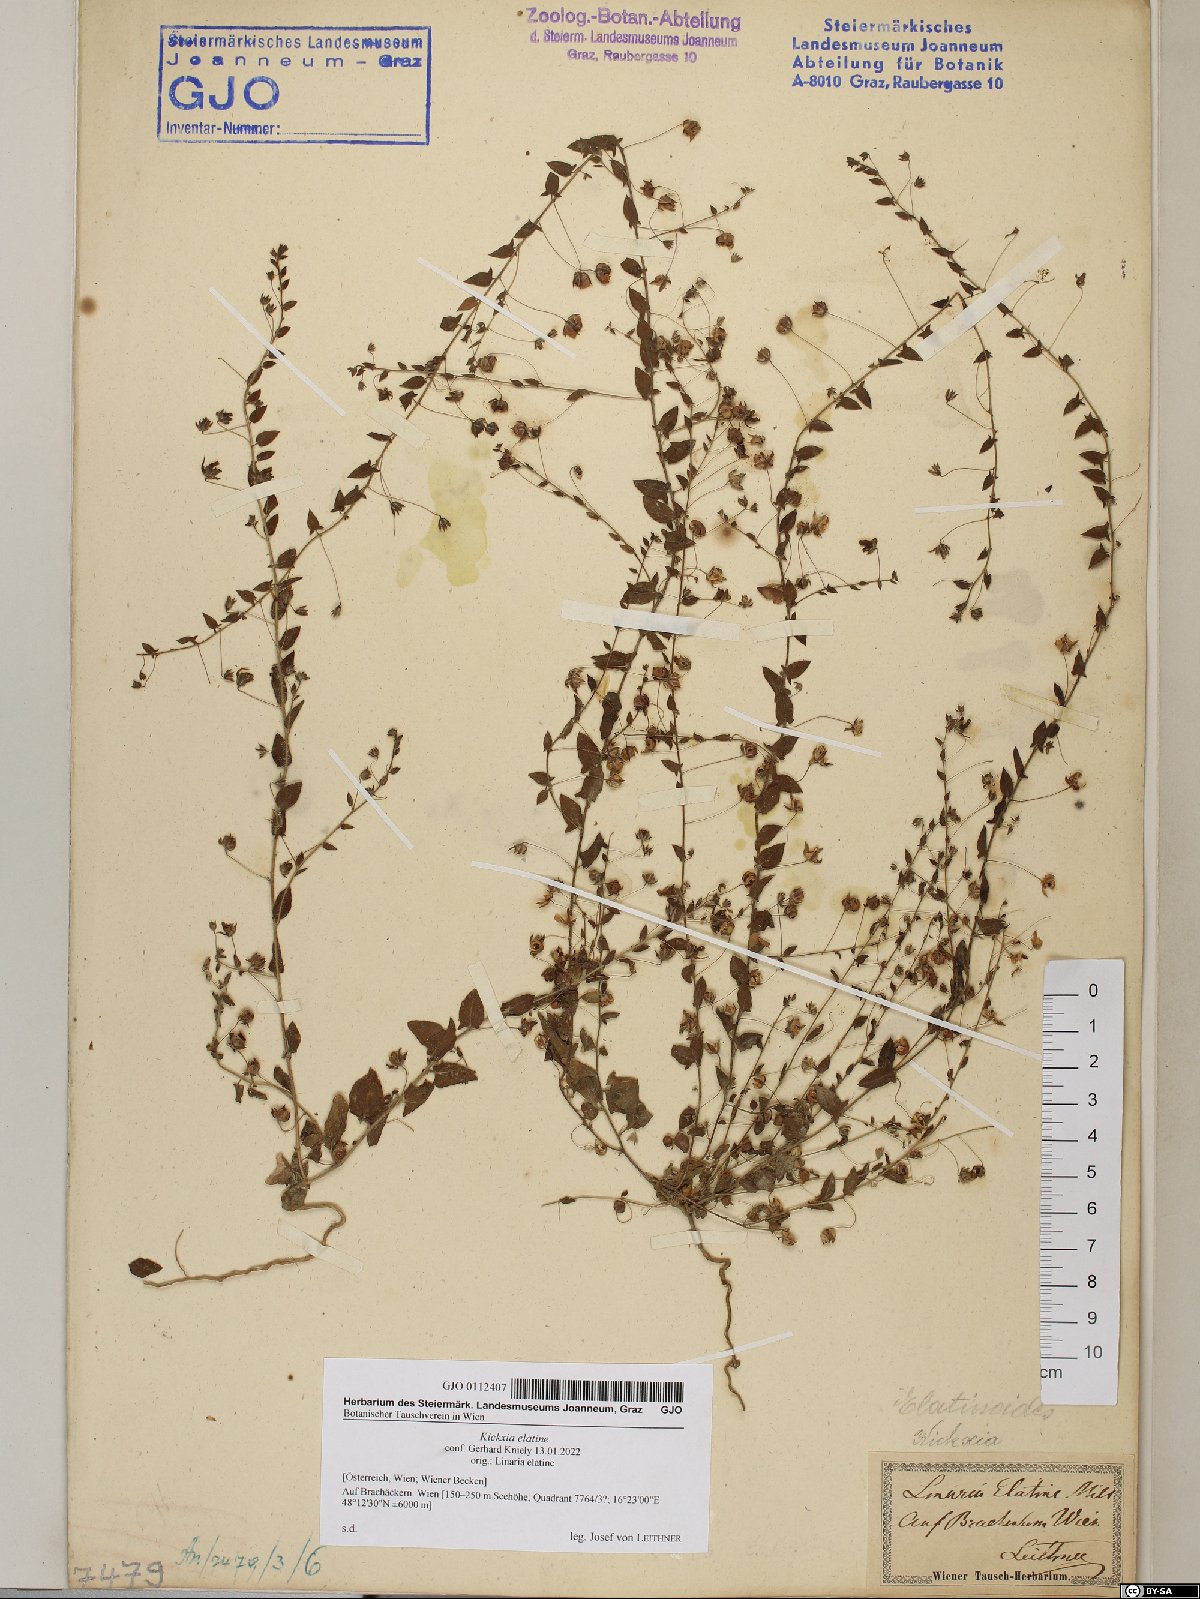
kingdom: Plantae
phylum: Tracheophyta
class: Magnoliopsida
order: Lamiales
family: Plantaginaceae
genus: Kickxia
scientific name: Kickxia elatine
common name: Sharp-leaved fluellen
